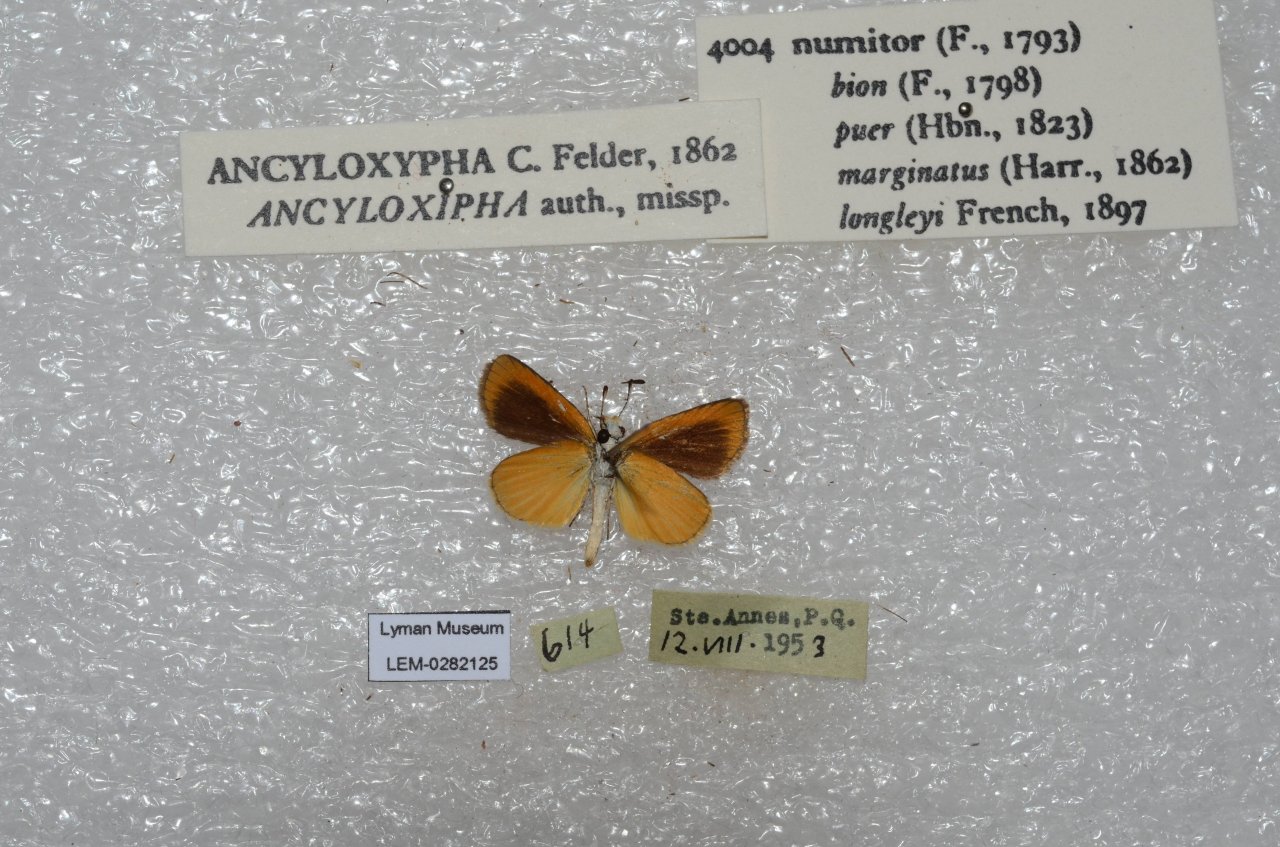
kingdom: Animalia
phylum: Arthropoda
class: Insecta
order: Lepidoptera
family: Hesperiidae
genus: Ancyloxypha
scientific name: Ancyloxypha numitor
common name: Least Skipper
